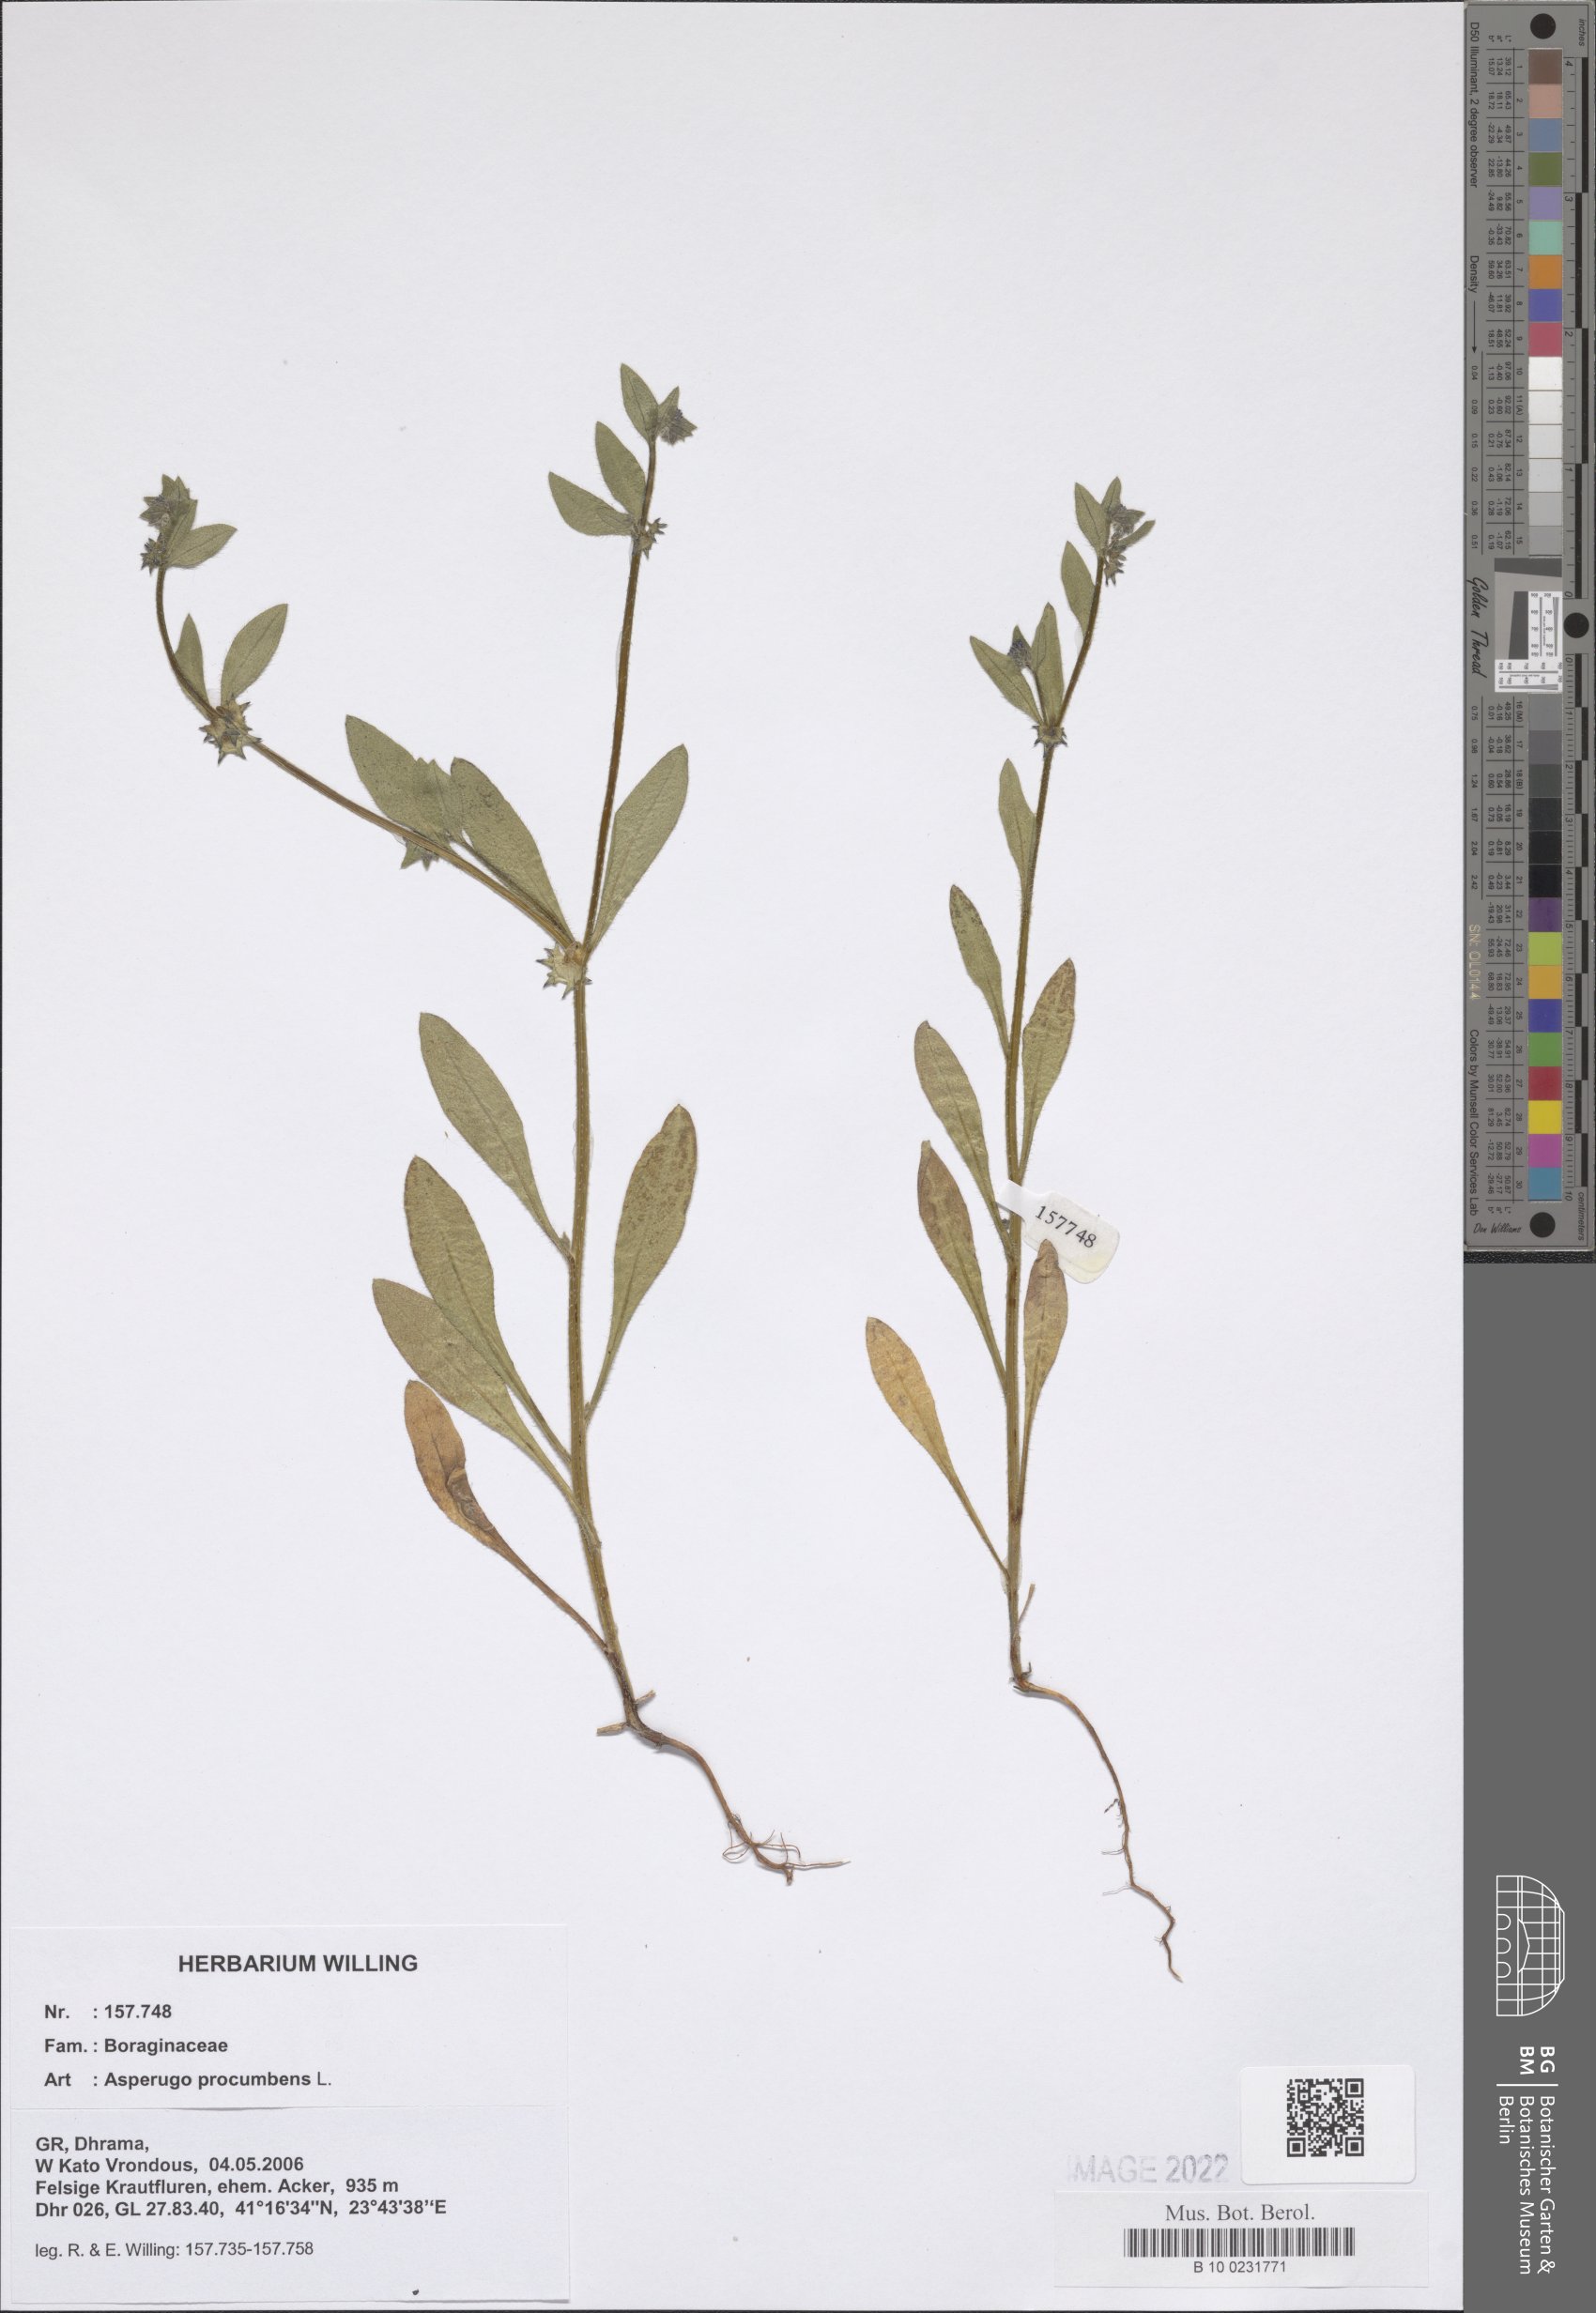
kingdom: Plantae
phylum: Tracheophyta
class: Magnoliopsida
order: Boraginales
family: Boraginaceae
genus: Asperugo
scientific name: Asperugo procumbens
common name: Madwort
